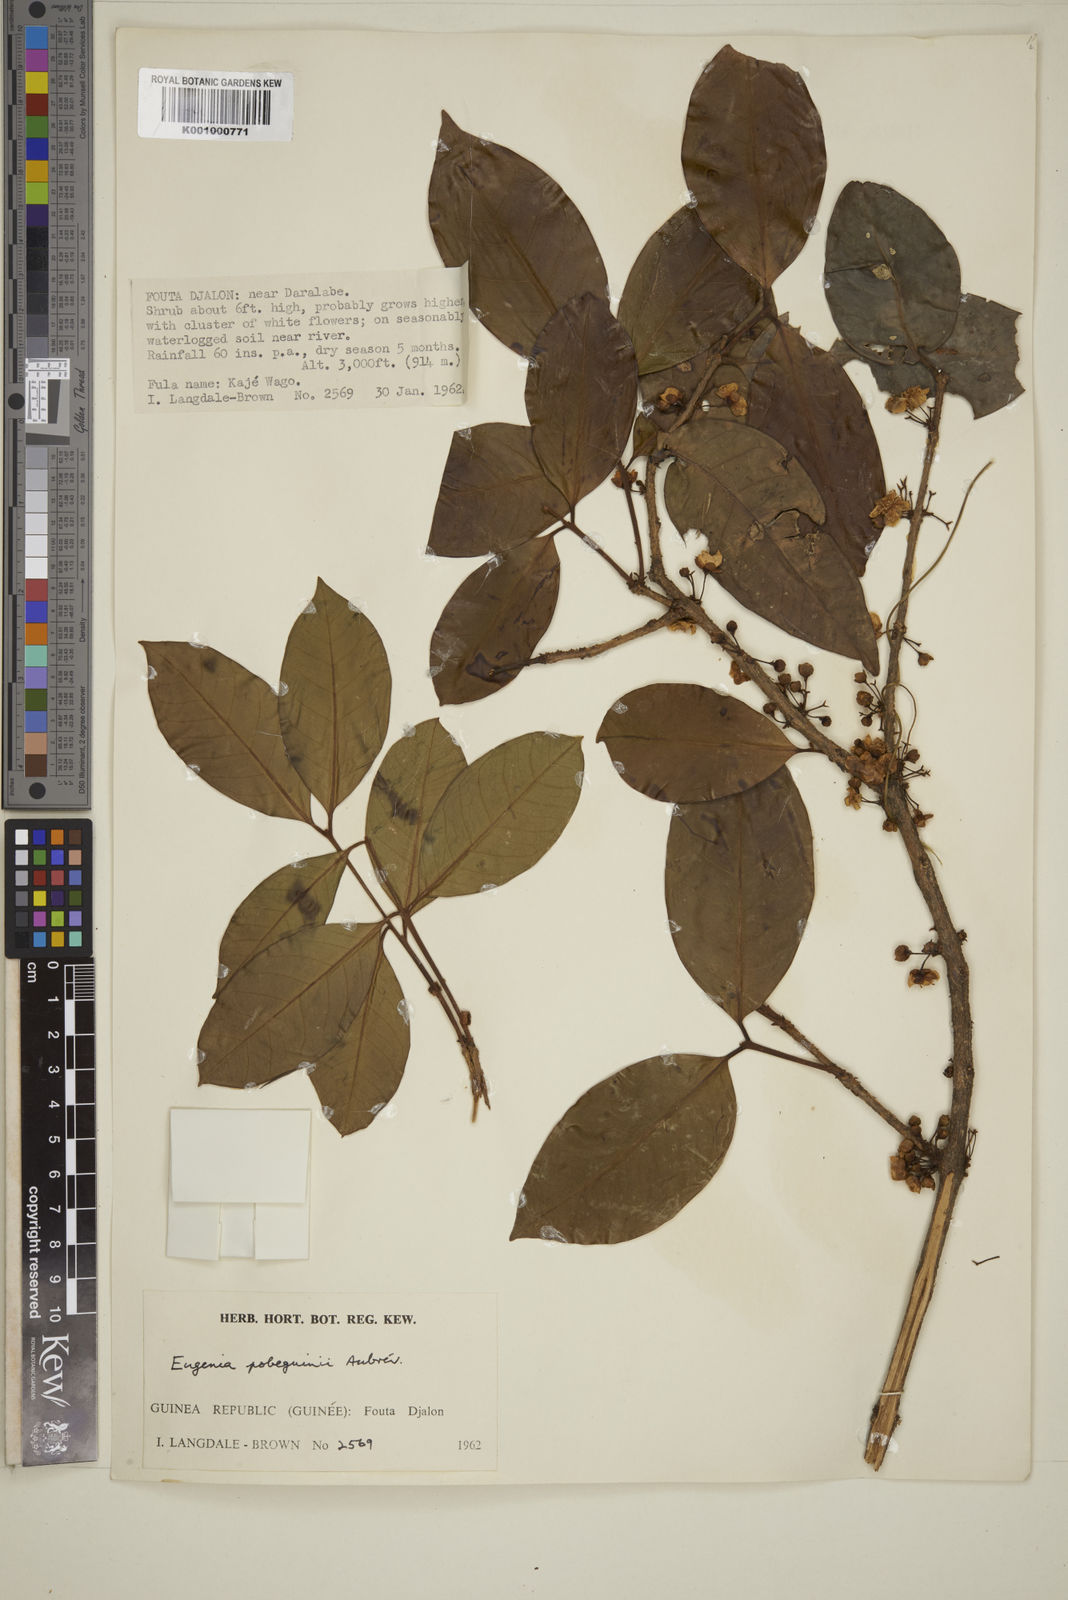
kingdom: Plantae
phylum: Tracheophyta
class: Magnoliopsida
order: Myrtales
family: Myrtaceae
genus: Eugenia
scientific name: Eugenia
